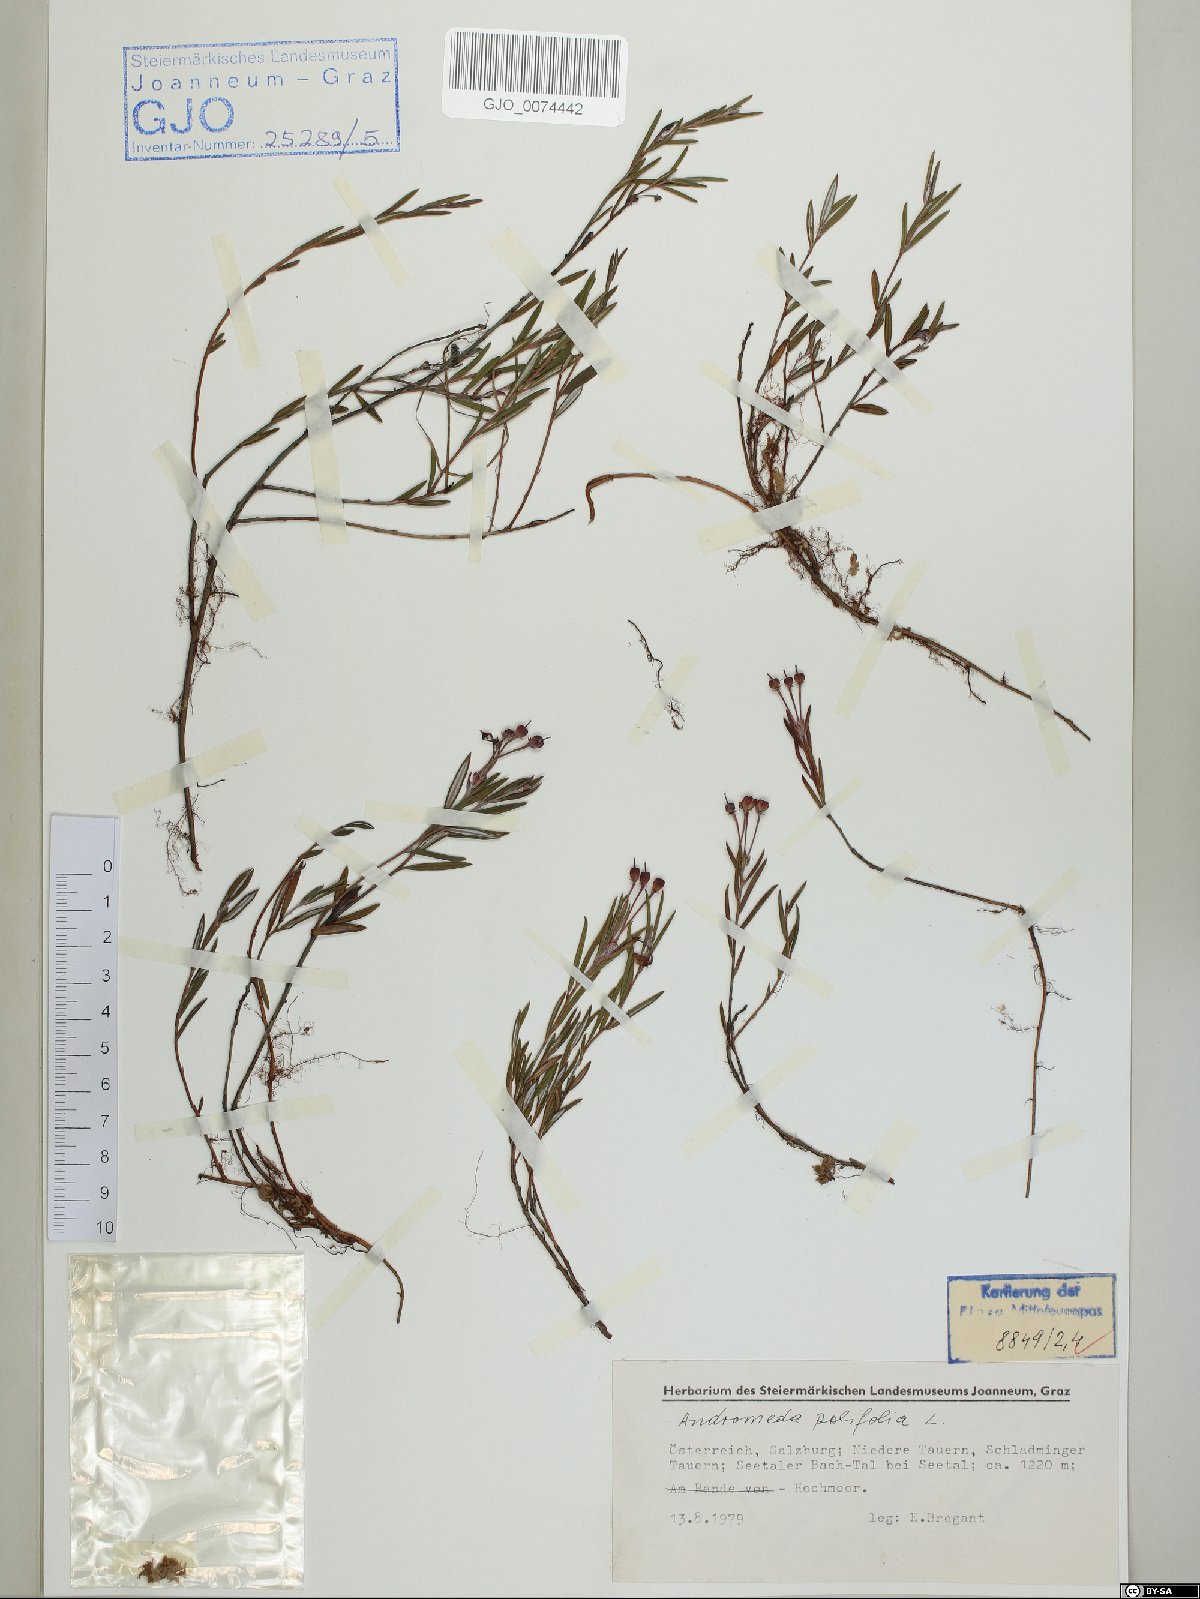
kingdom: Plantae
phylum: Tracheophyta
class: Magnoliopsida
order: Ericales
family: Ericaceae
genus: Andromeda
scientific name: Andromeda polifolia
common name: Bog-rosemary
